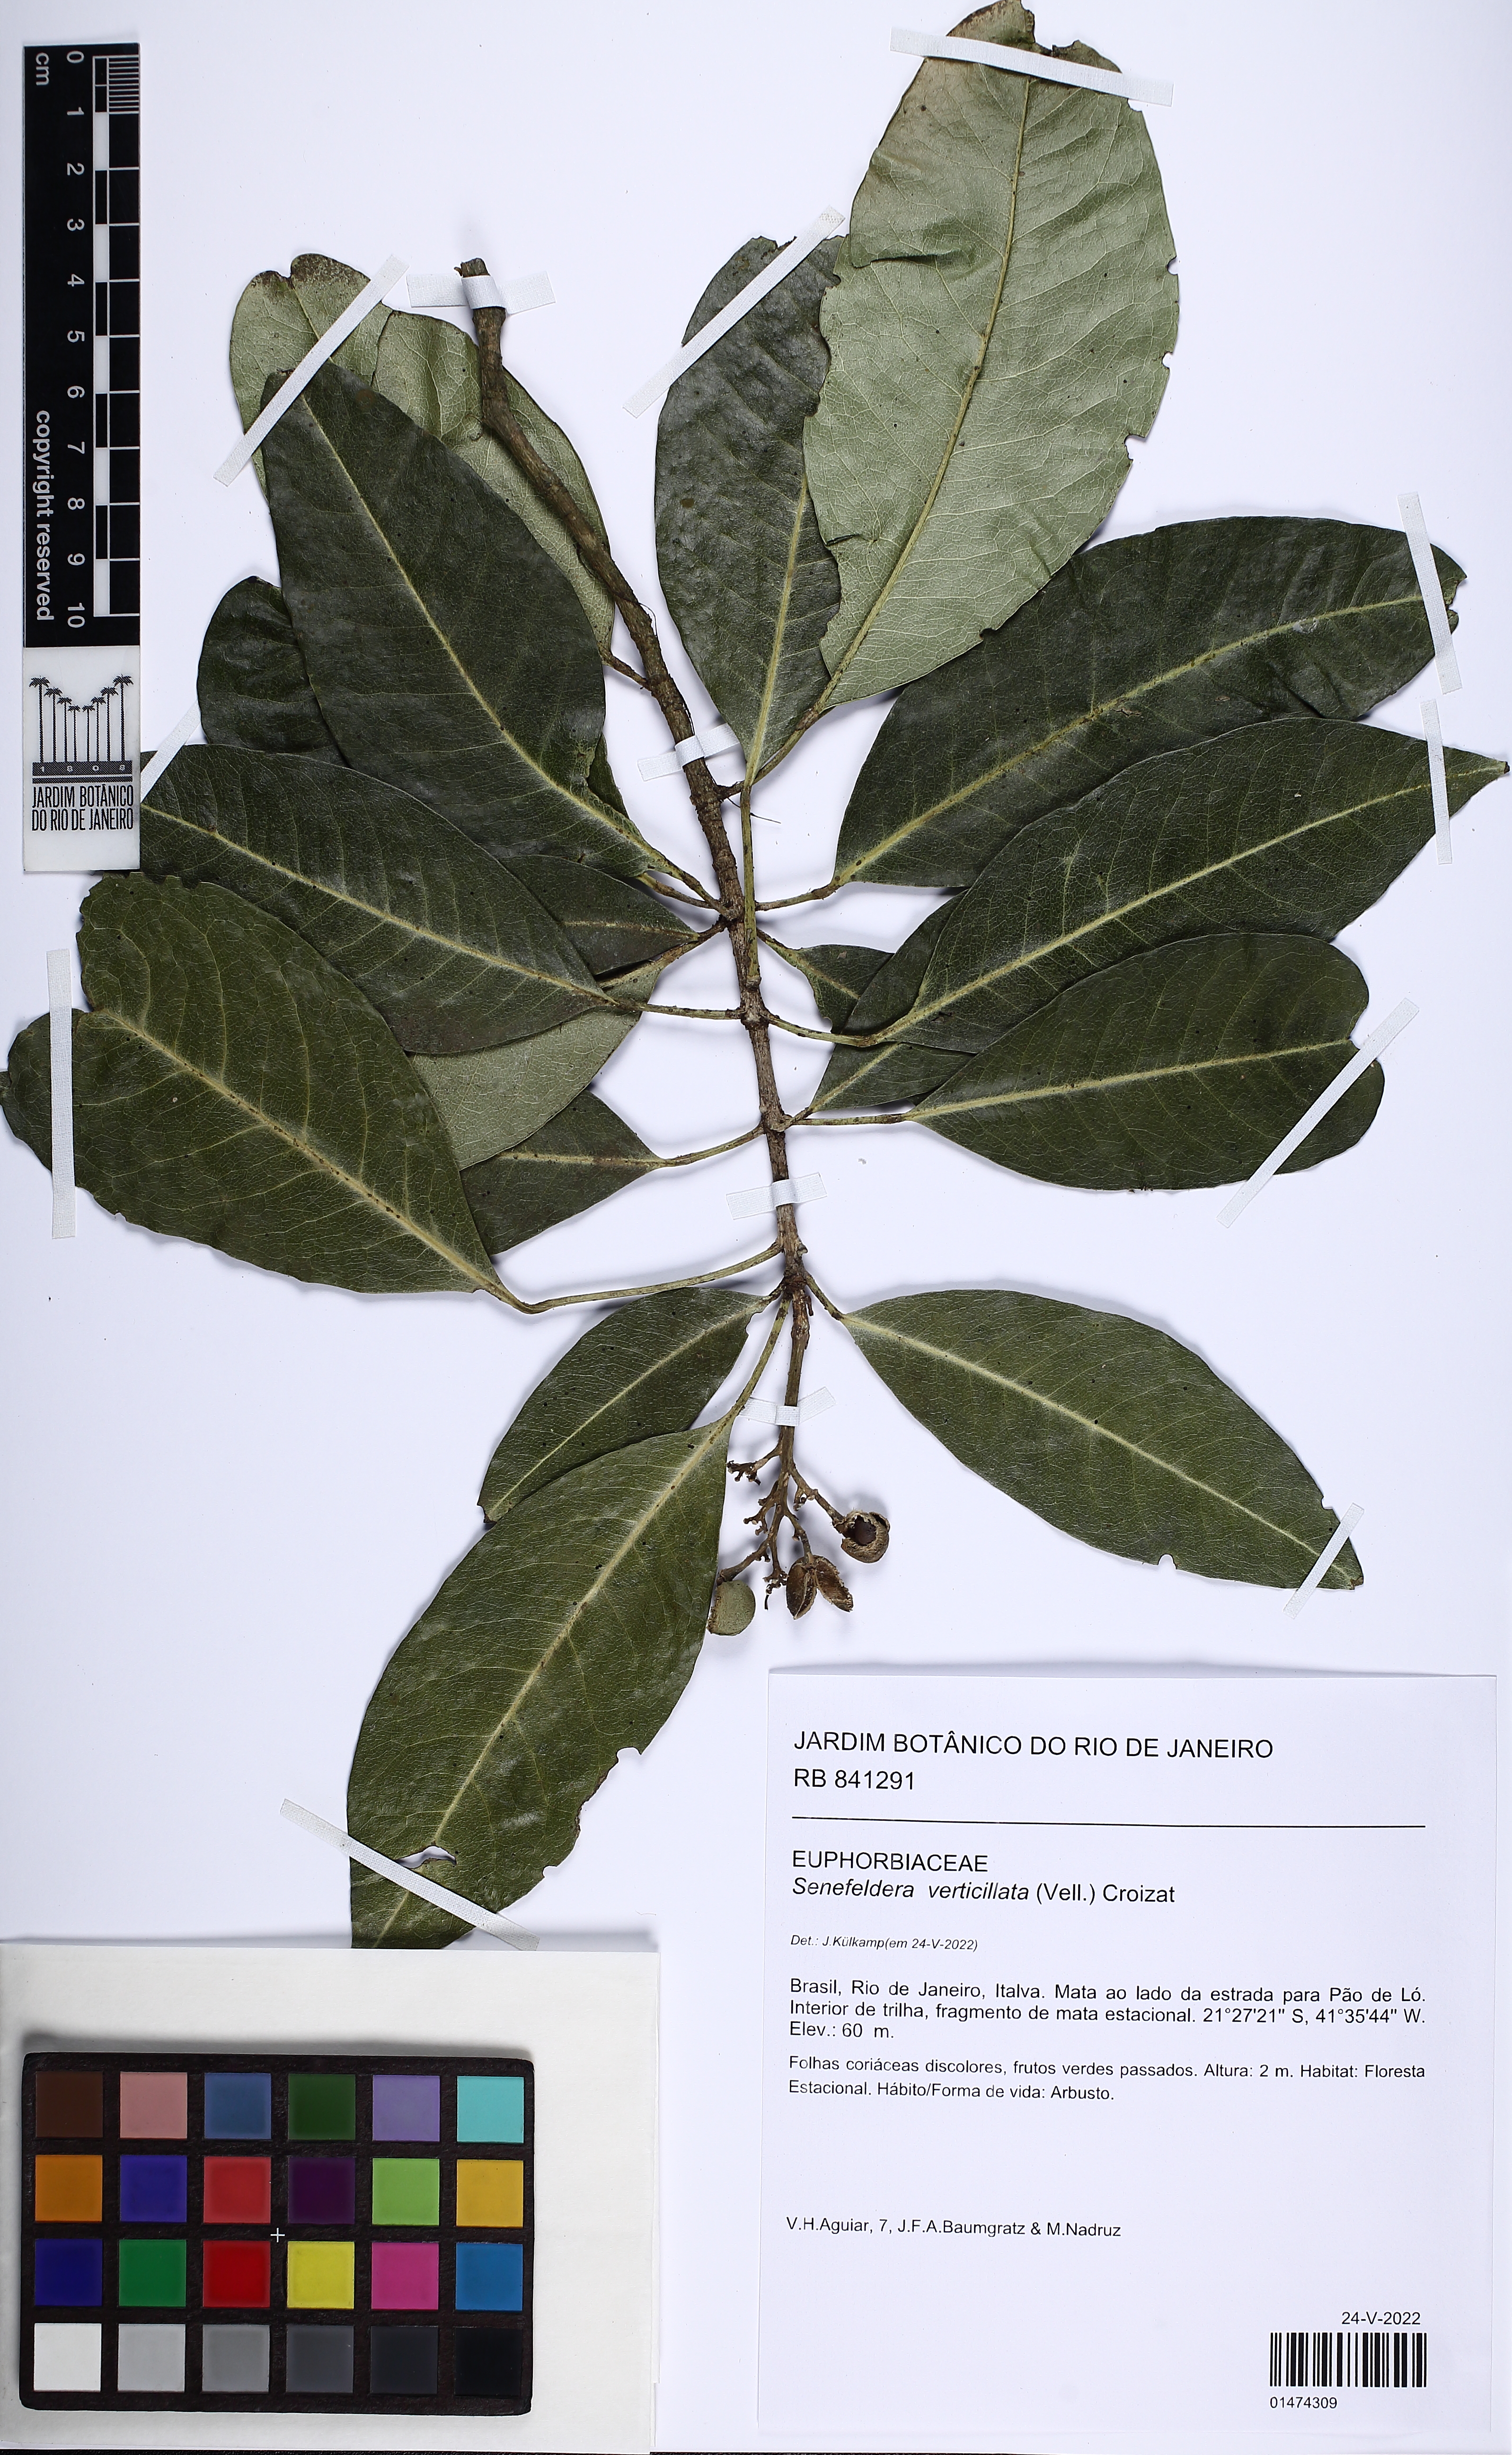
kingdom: Plantae
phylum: Tracheophyta
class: Magnoliopsida
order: Malpighiales
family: Euphorbiaceae
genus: Senefeldera
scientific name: Senefeldera verticillata
